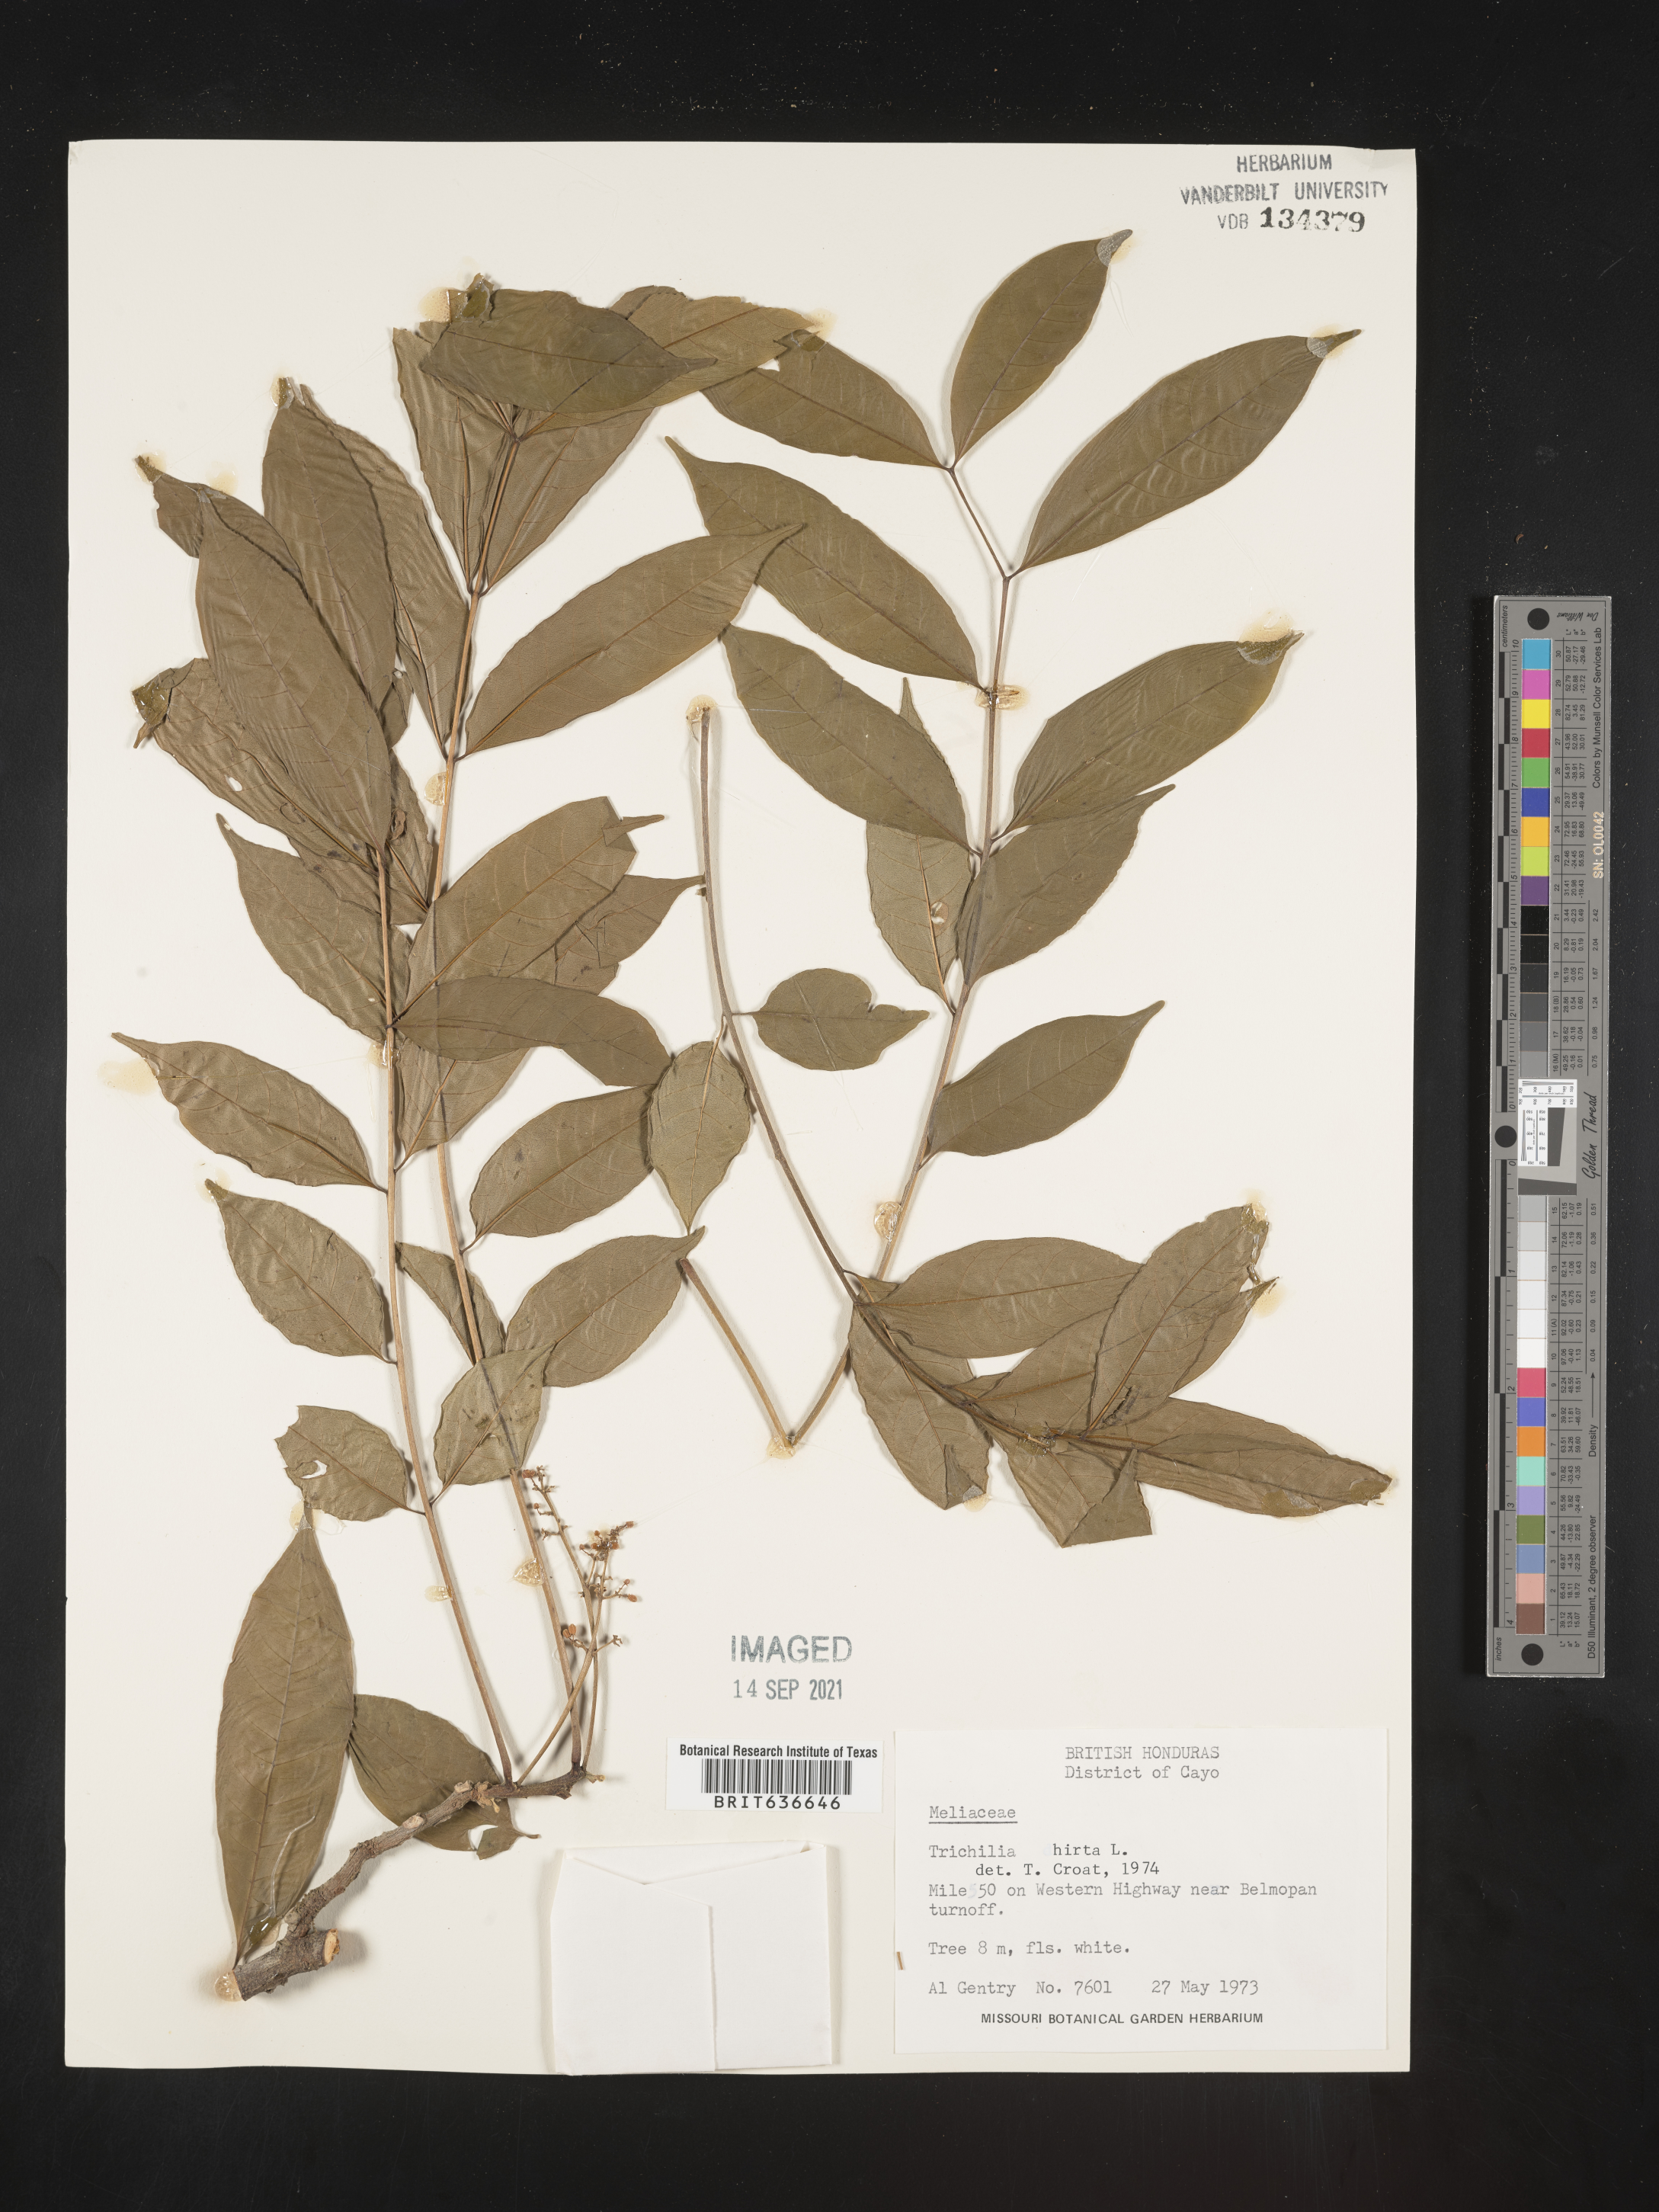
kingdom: Plantae
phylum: Tracheophyta
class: Magnoliopsida
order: Sapindales
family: Meliaceae
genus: Trichilia
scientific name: Trichilia
